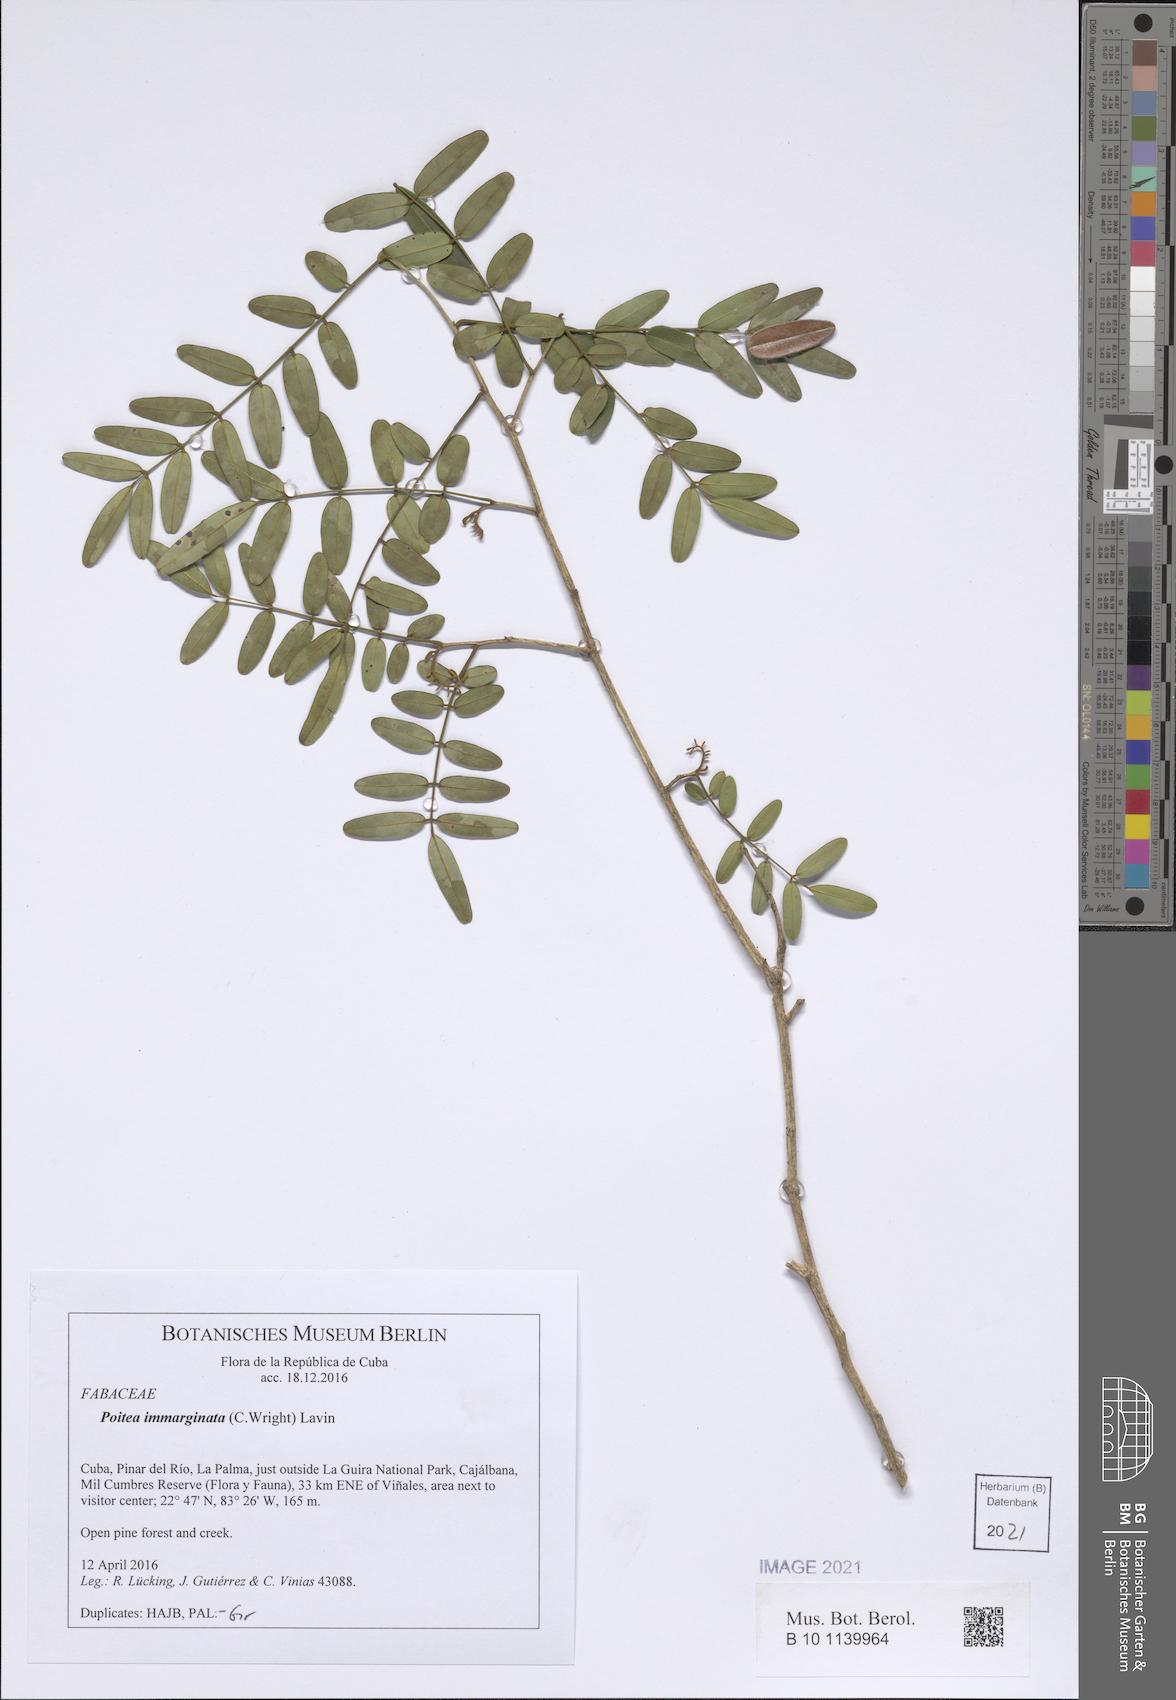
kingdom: Plantae
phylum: Tracheophyta
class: Magnoliopsida
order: Fabales
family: Fabaceae
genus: Poitea
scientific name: Poitea immarginata
